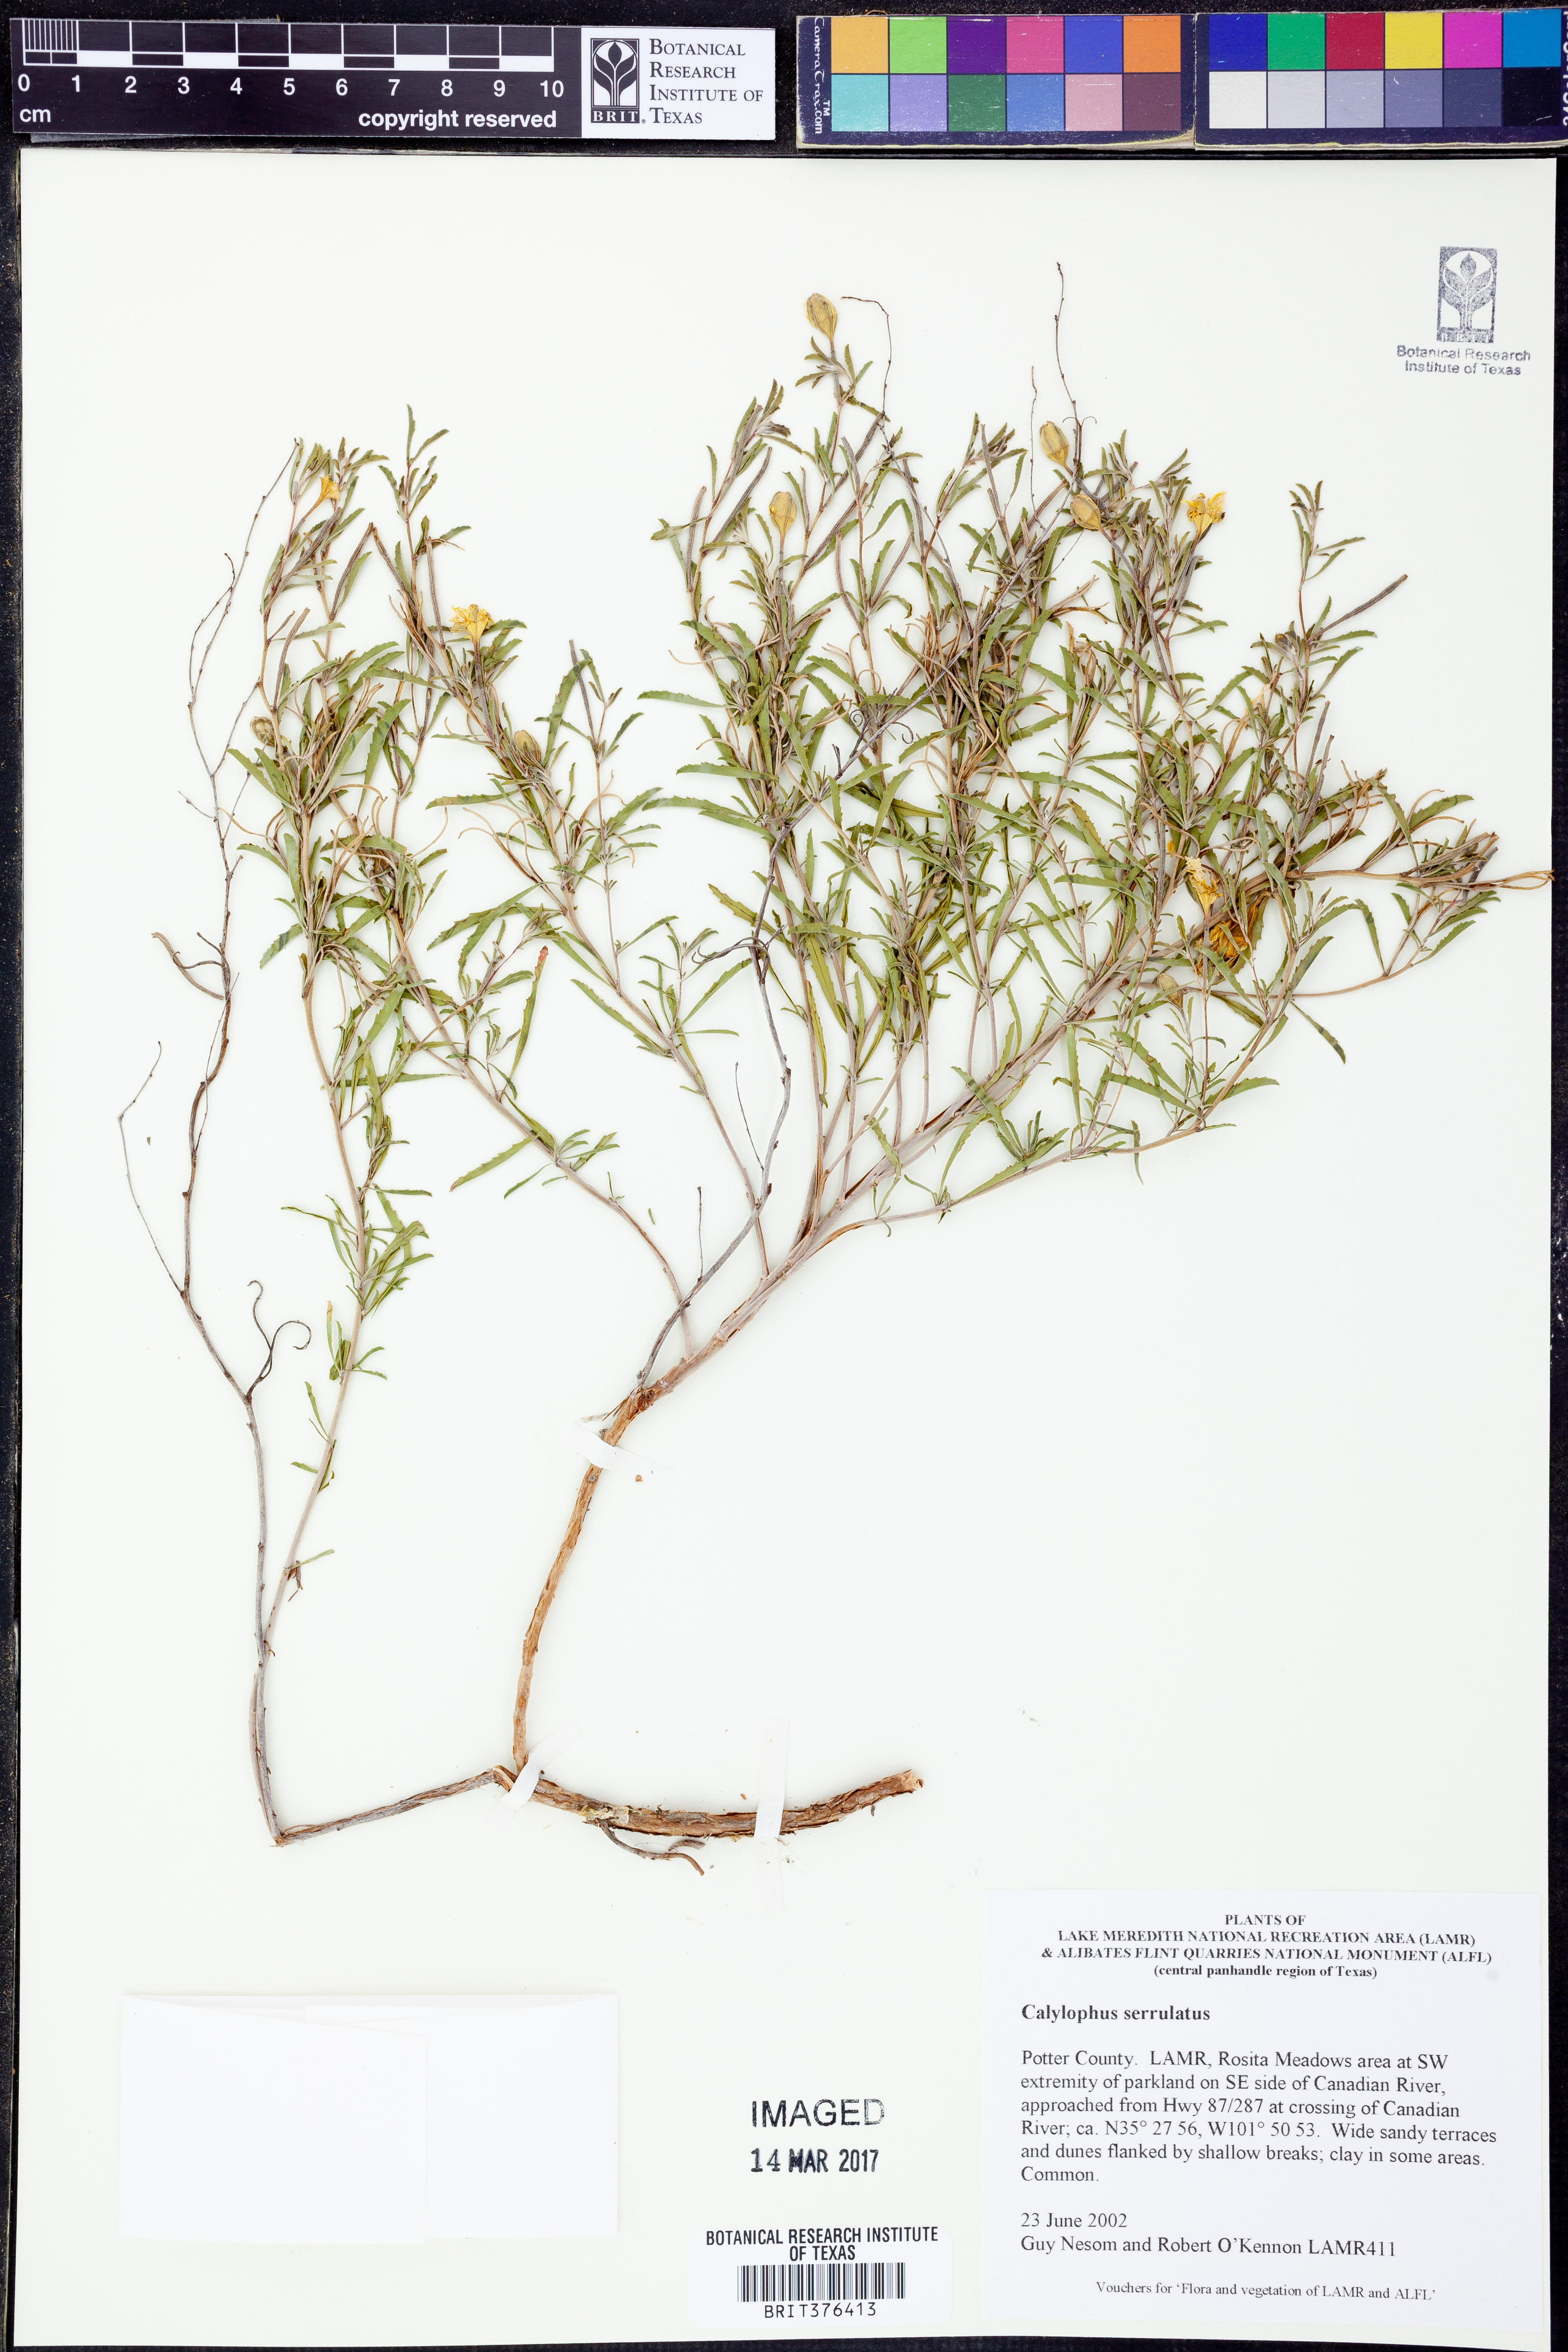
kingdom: Plantae
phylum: Tracheophyta
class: Magnoliopsida
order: Myrtales
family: Onagraceae
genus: Oenothera
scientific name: Oenothera serrulata
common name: Half-shrub calylophus
